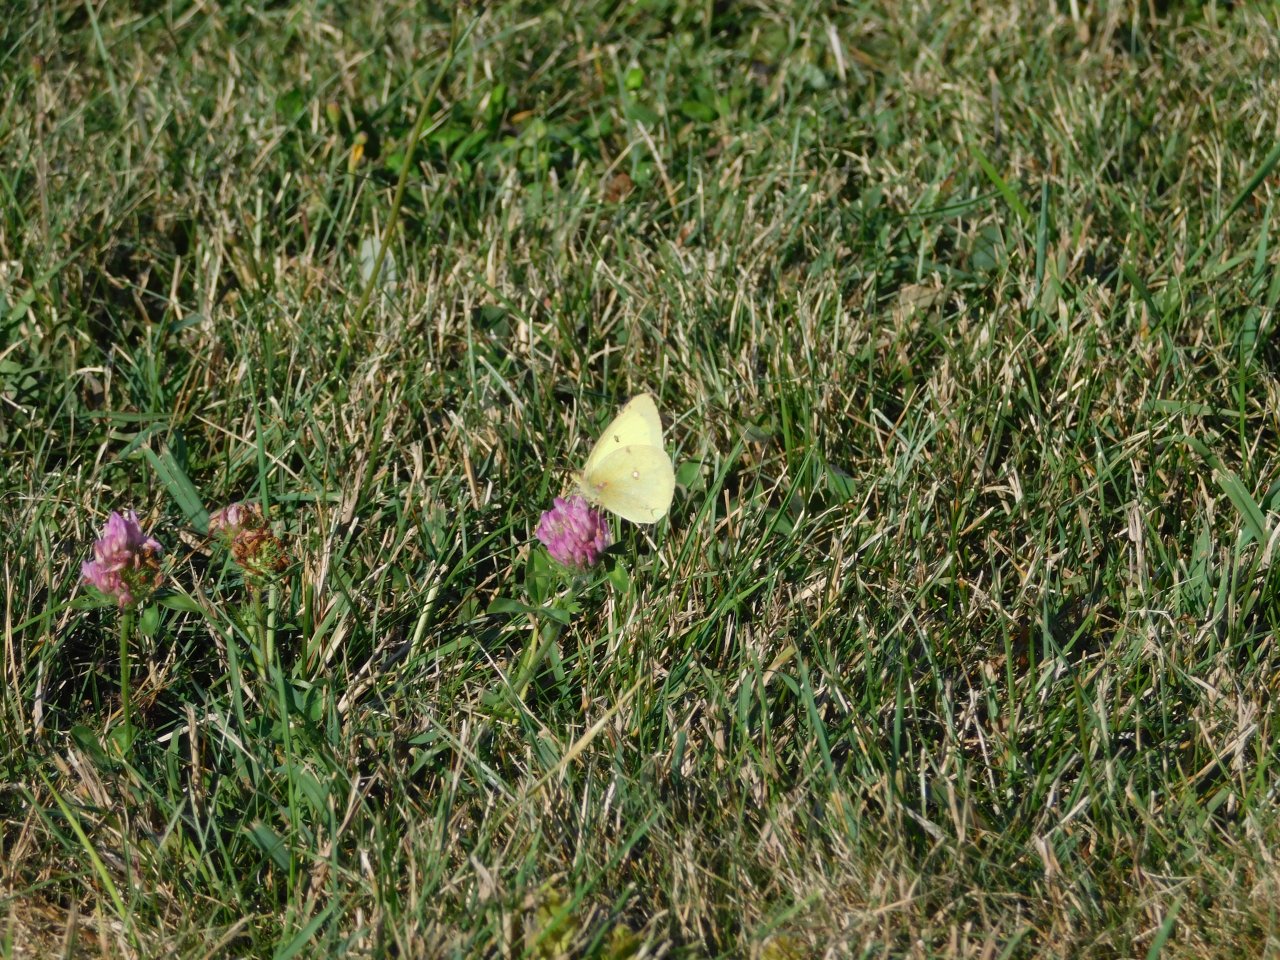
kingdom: Animalia
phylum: Arthropoda
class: Insecta
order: Lepidoptera
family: Pieridae
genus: Colias
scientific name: Colias philodice
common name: Clouded Sulphur
